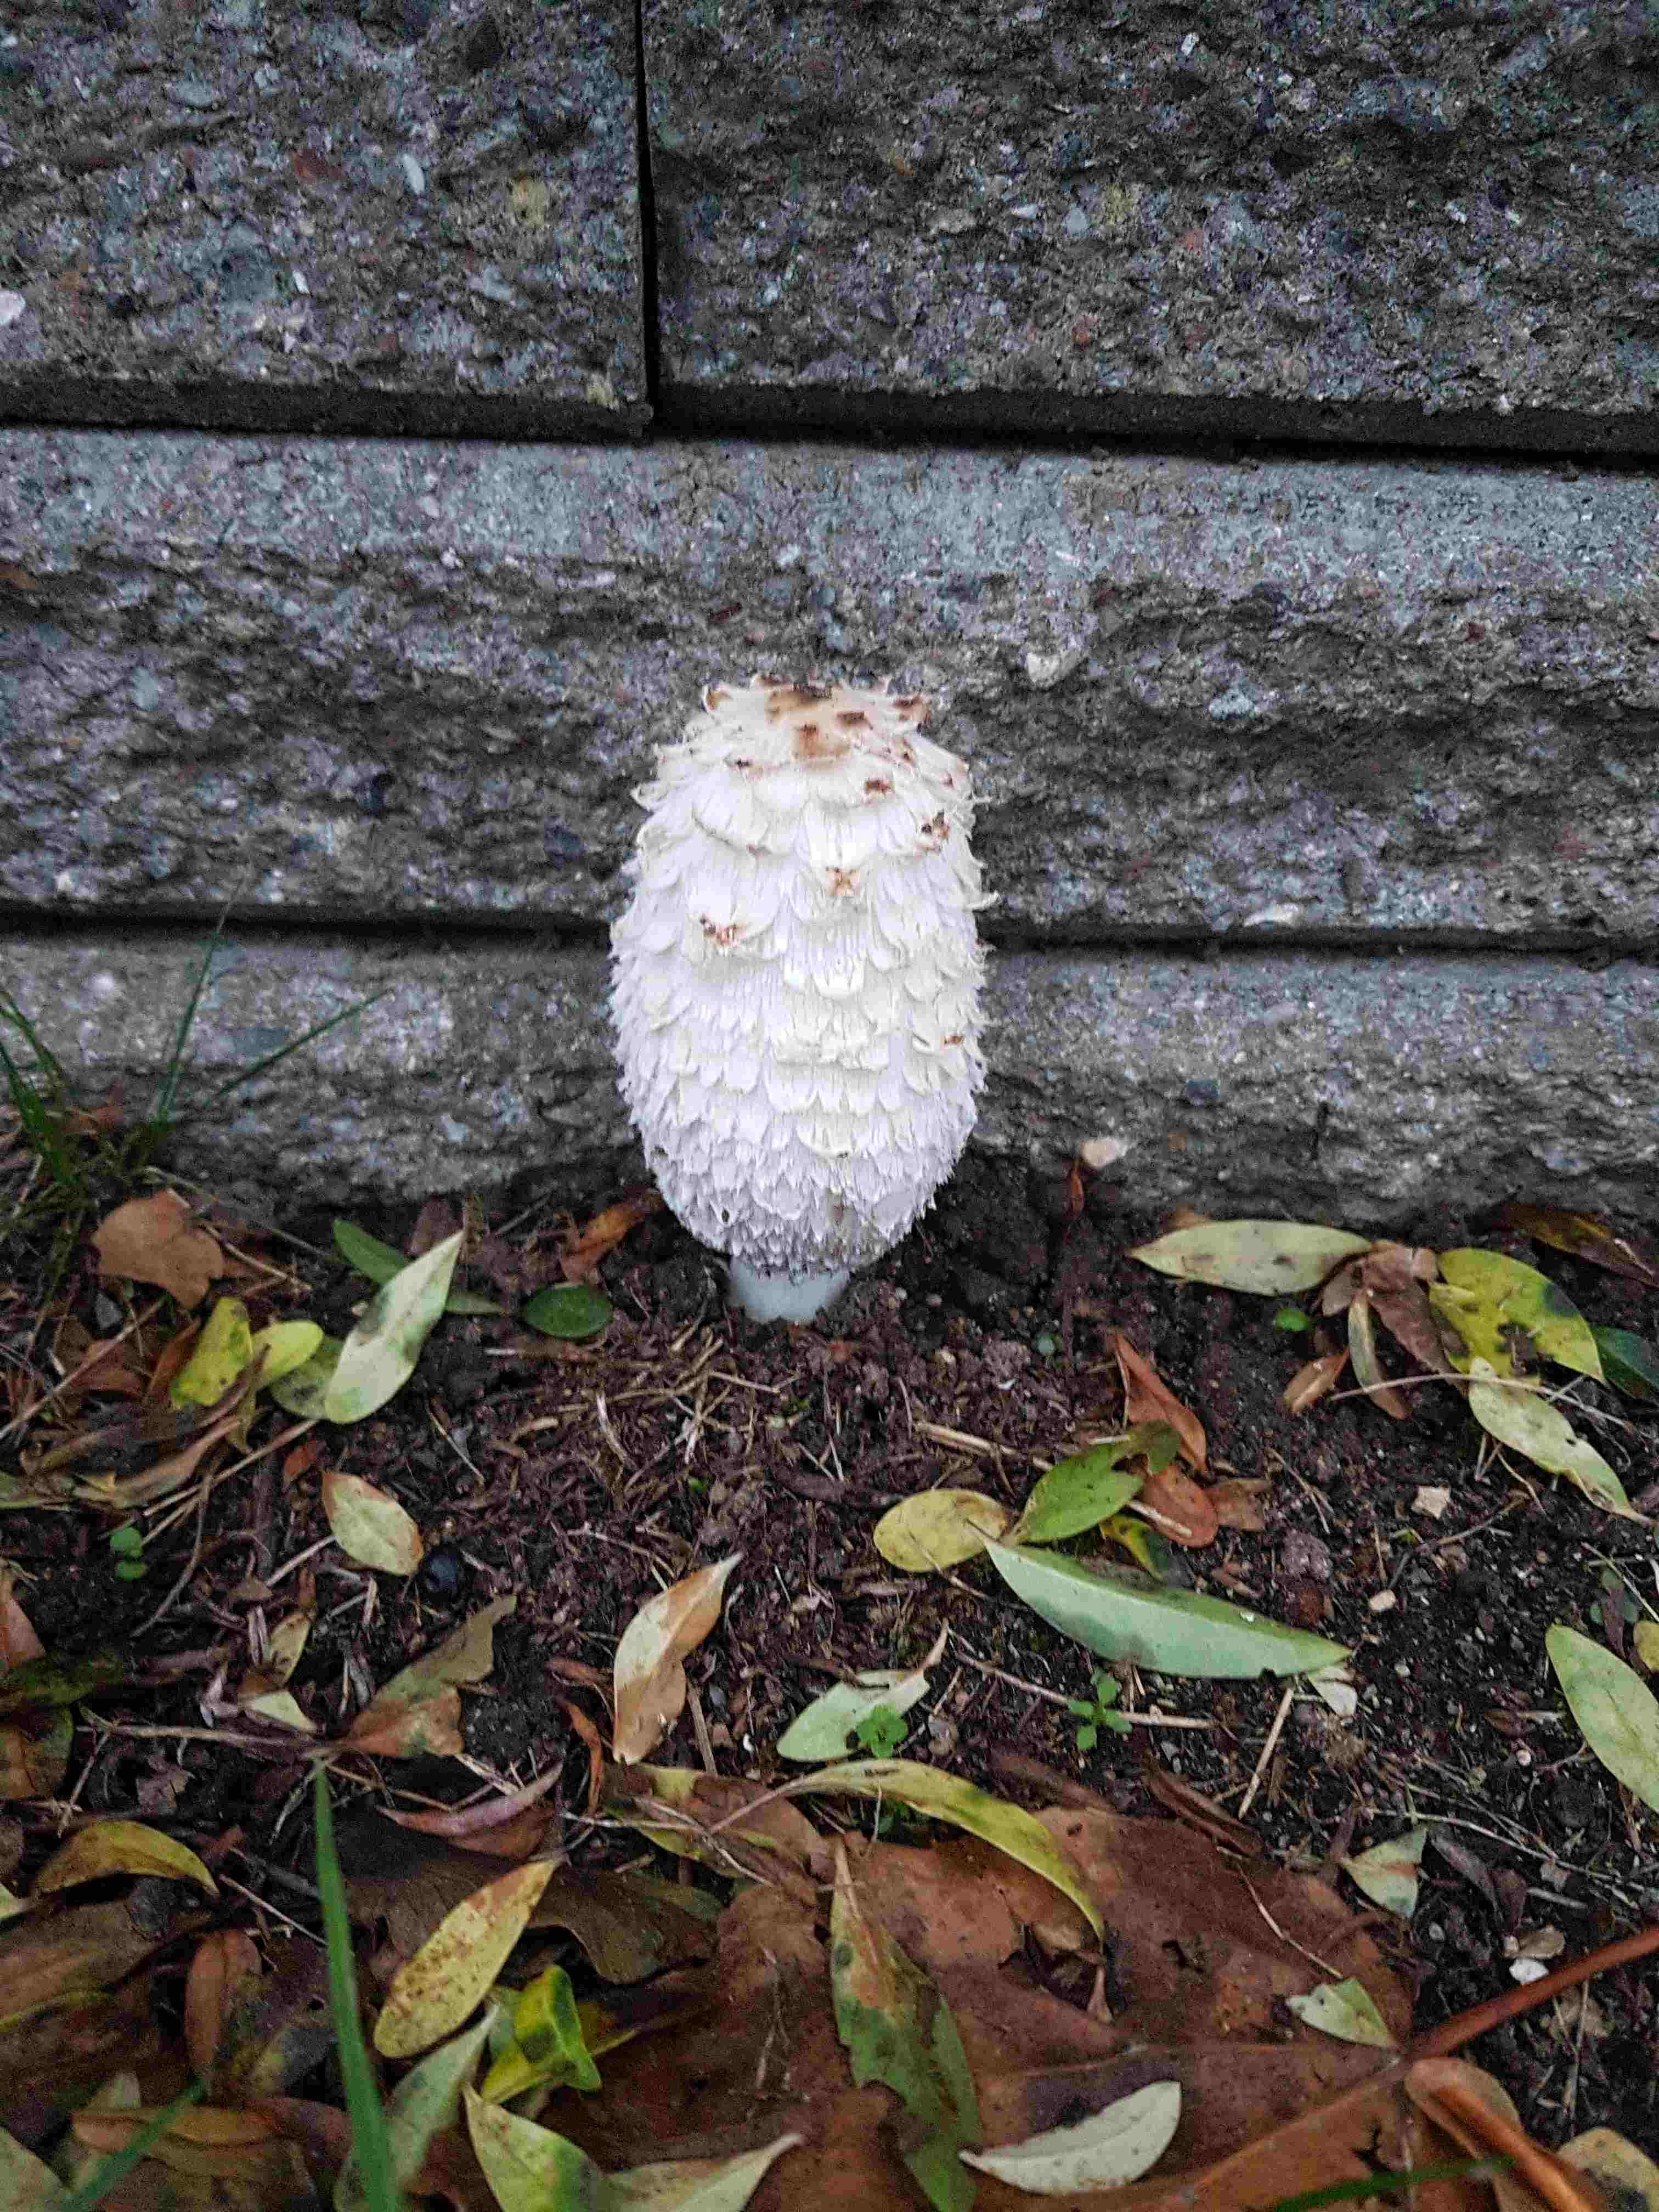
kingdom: Fungi
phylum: Basidiomycota
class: Agaricomycetes
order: Agaricales
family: Agaricaceae
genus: Coprinus
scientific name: Coprinus comatus
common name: stor parykhat
